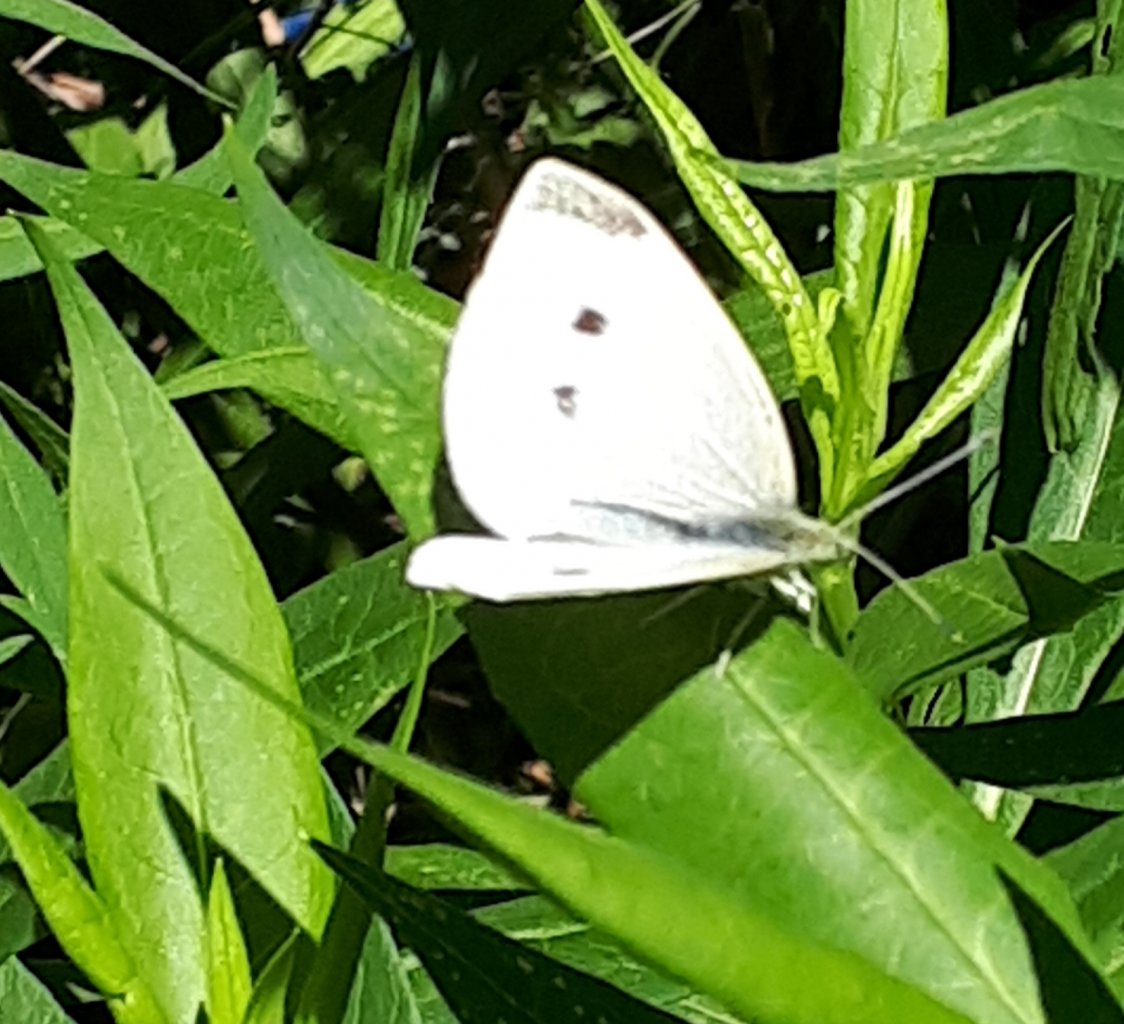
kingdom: Animalia
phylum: Arthropoda
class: Insecta
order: Lepidoptera
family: Pieridae
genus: Pieris
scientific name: Pieris rapae
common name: Cabbage White
